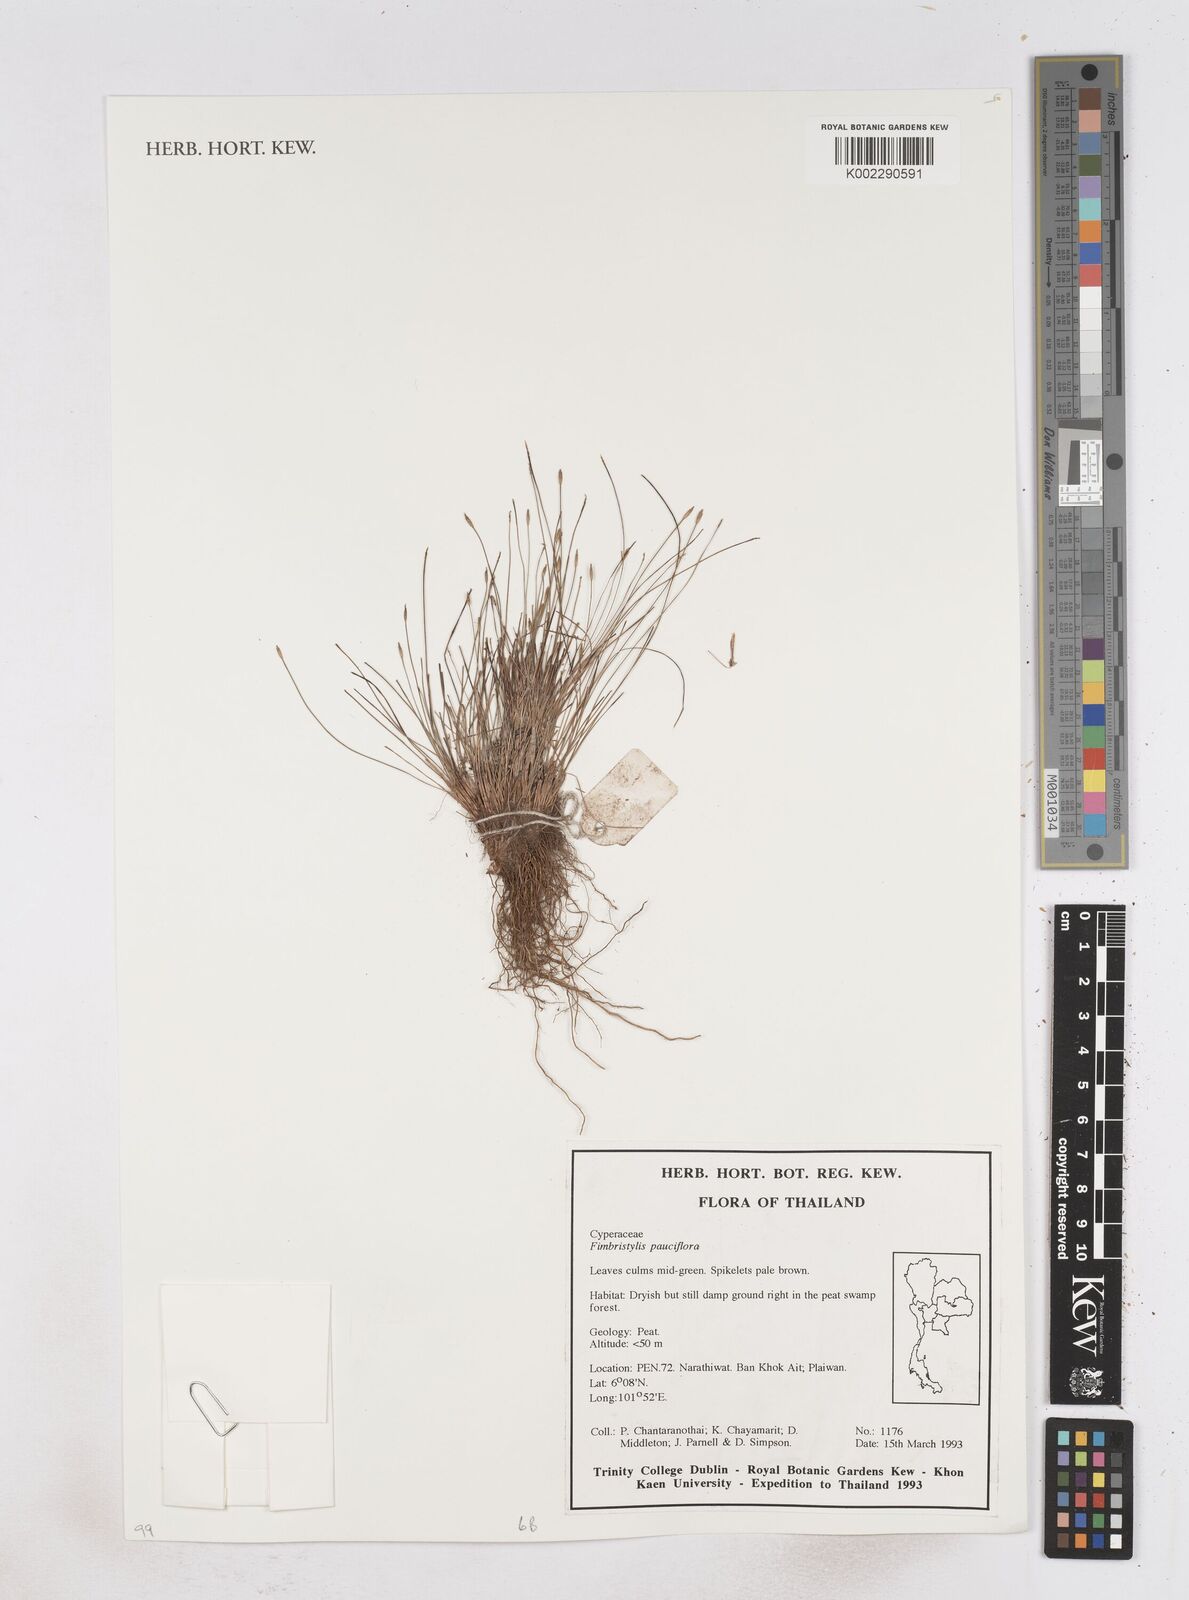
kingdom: Plantae
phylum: Tracheophyta
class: Liliopsida
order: Poales
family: Cyperaceae
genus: Fimbristylis
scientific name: Fimbristylis pauciflora
